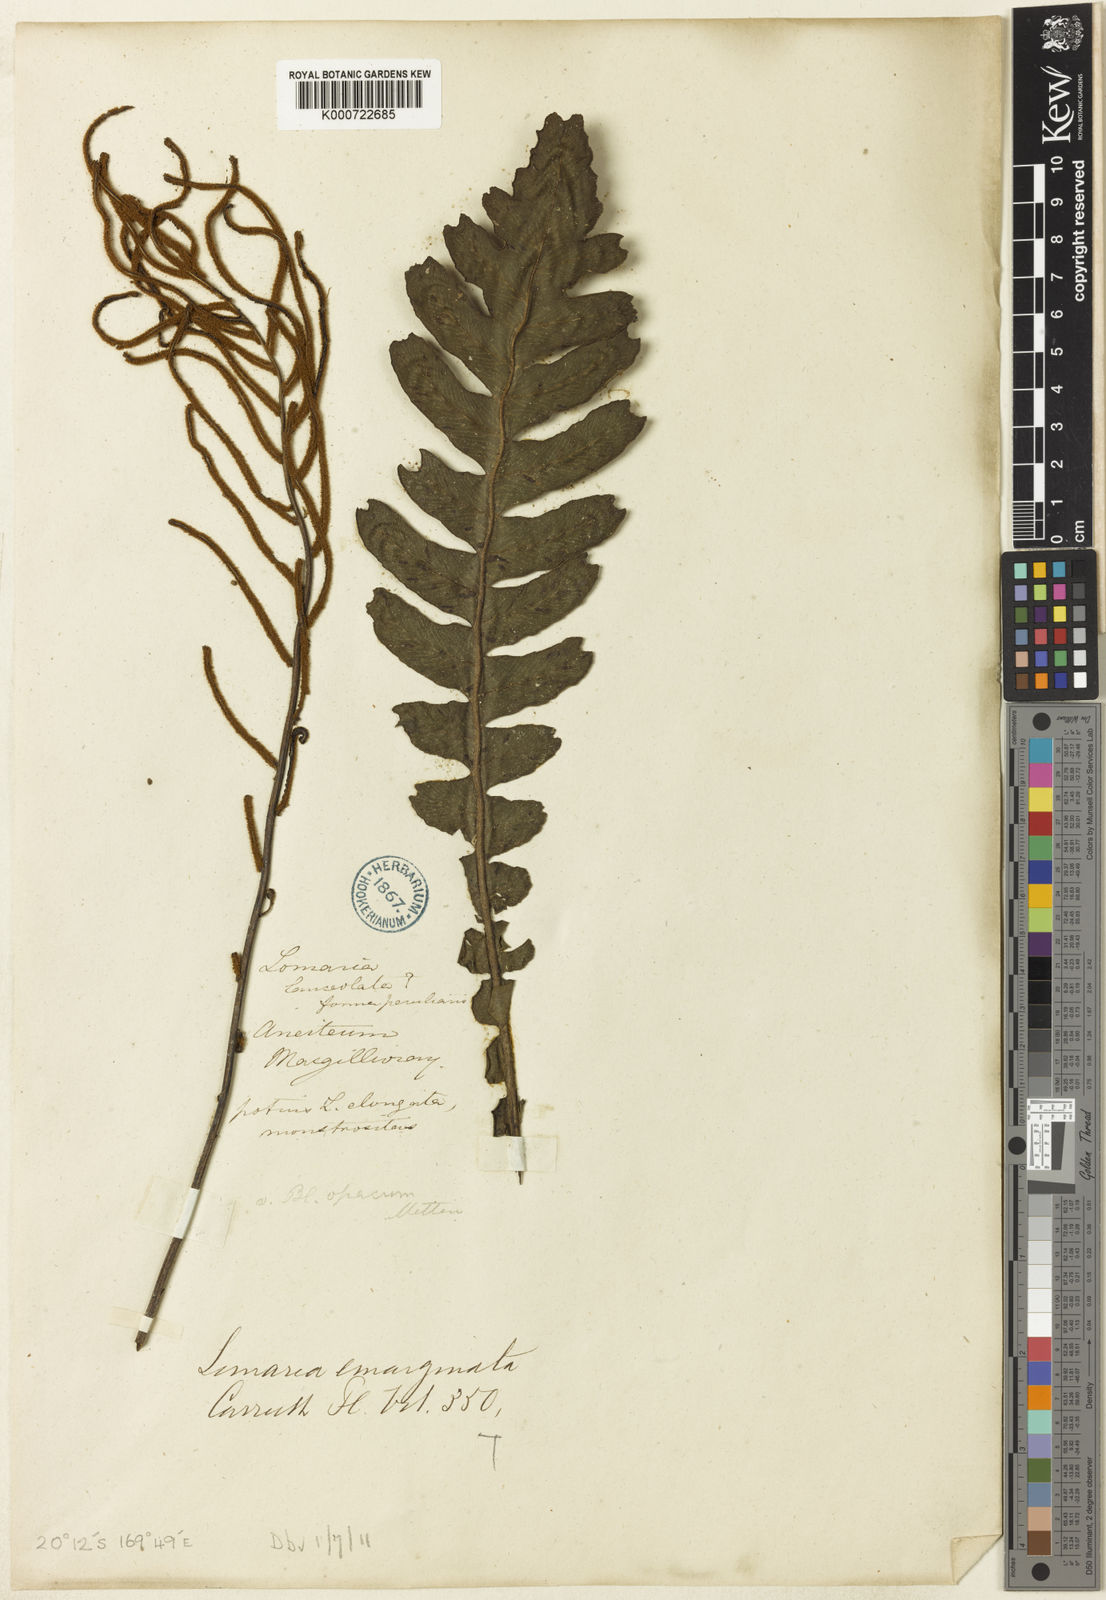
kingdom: Plantae
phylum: Tracheophyta
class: Polypodiopsida
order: Polypodiales
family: Blechnaceae
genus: Cranfillia
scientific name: Cranfillia opaca
